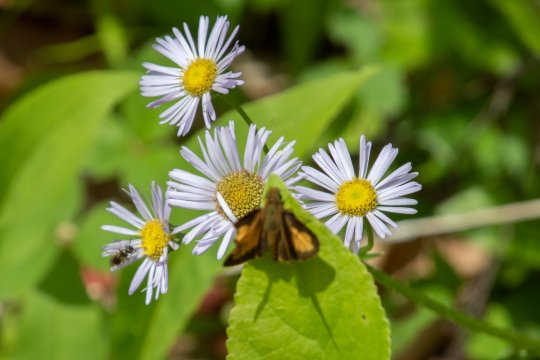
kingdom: Animalia
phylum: Arthropoda
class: Insecta
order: Lepidoptera
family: Hesperiidae
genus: Lon
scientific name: Lon hobomok
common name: Hobomok Skipper
